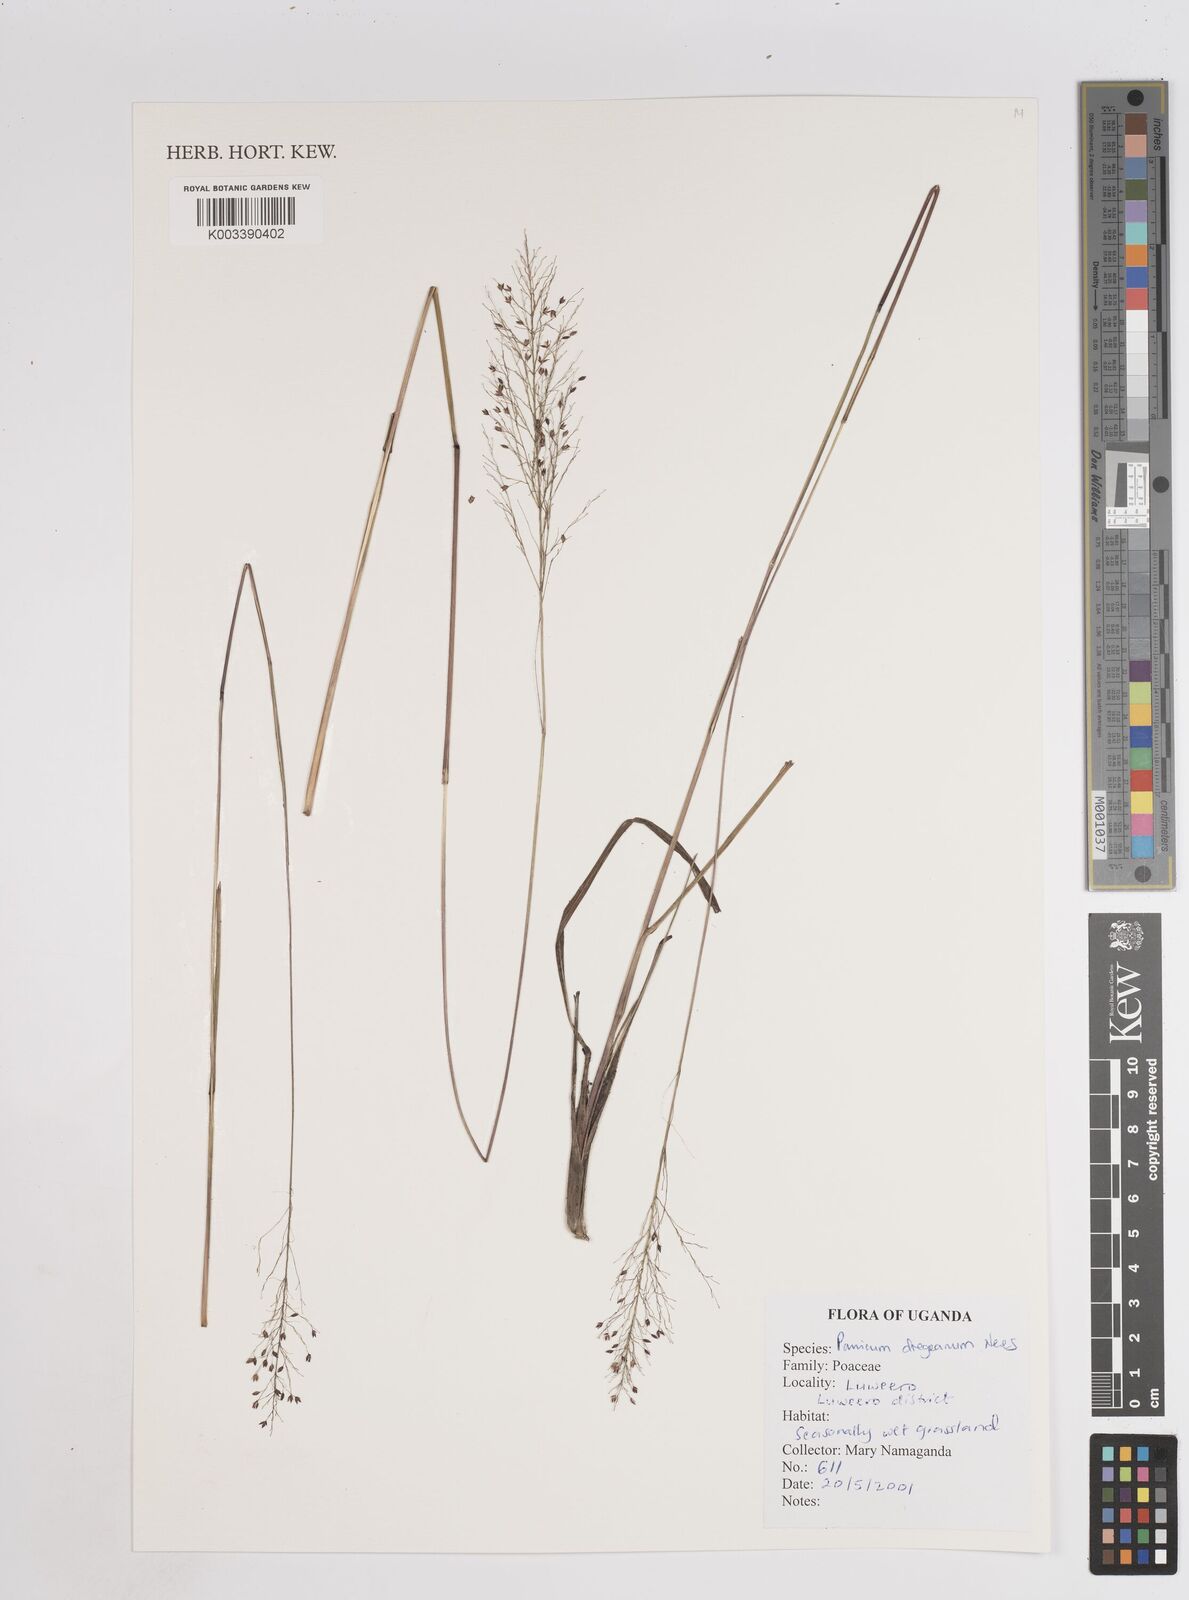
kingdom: Plantae
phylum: Tracheophyta
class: Liliopsida
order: Poales
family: Poaceae
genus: Panicum
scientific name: Panicum dregeanum
